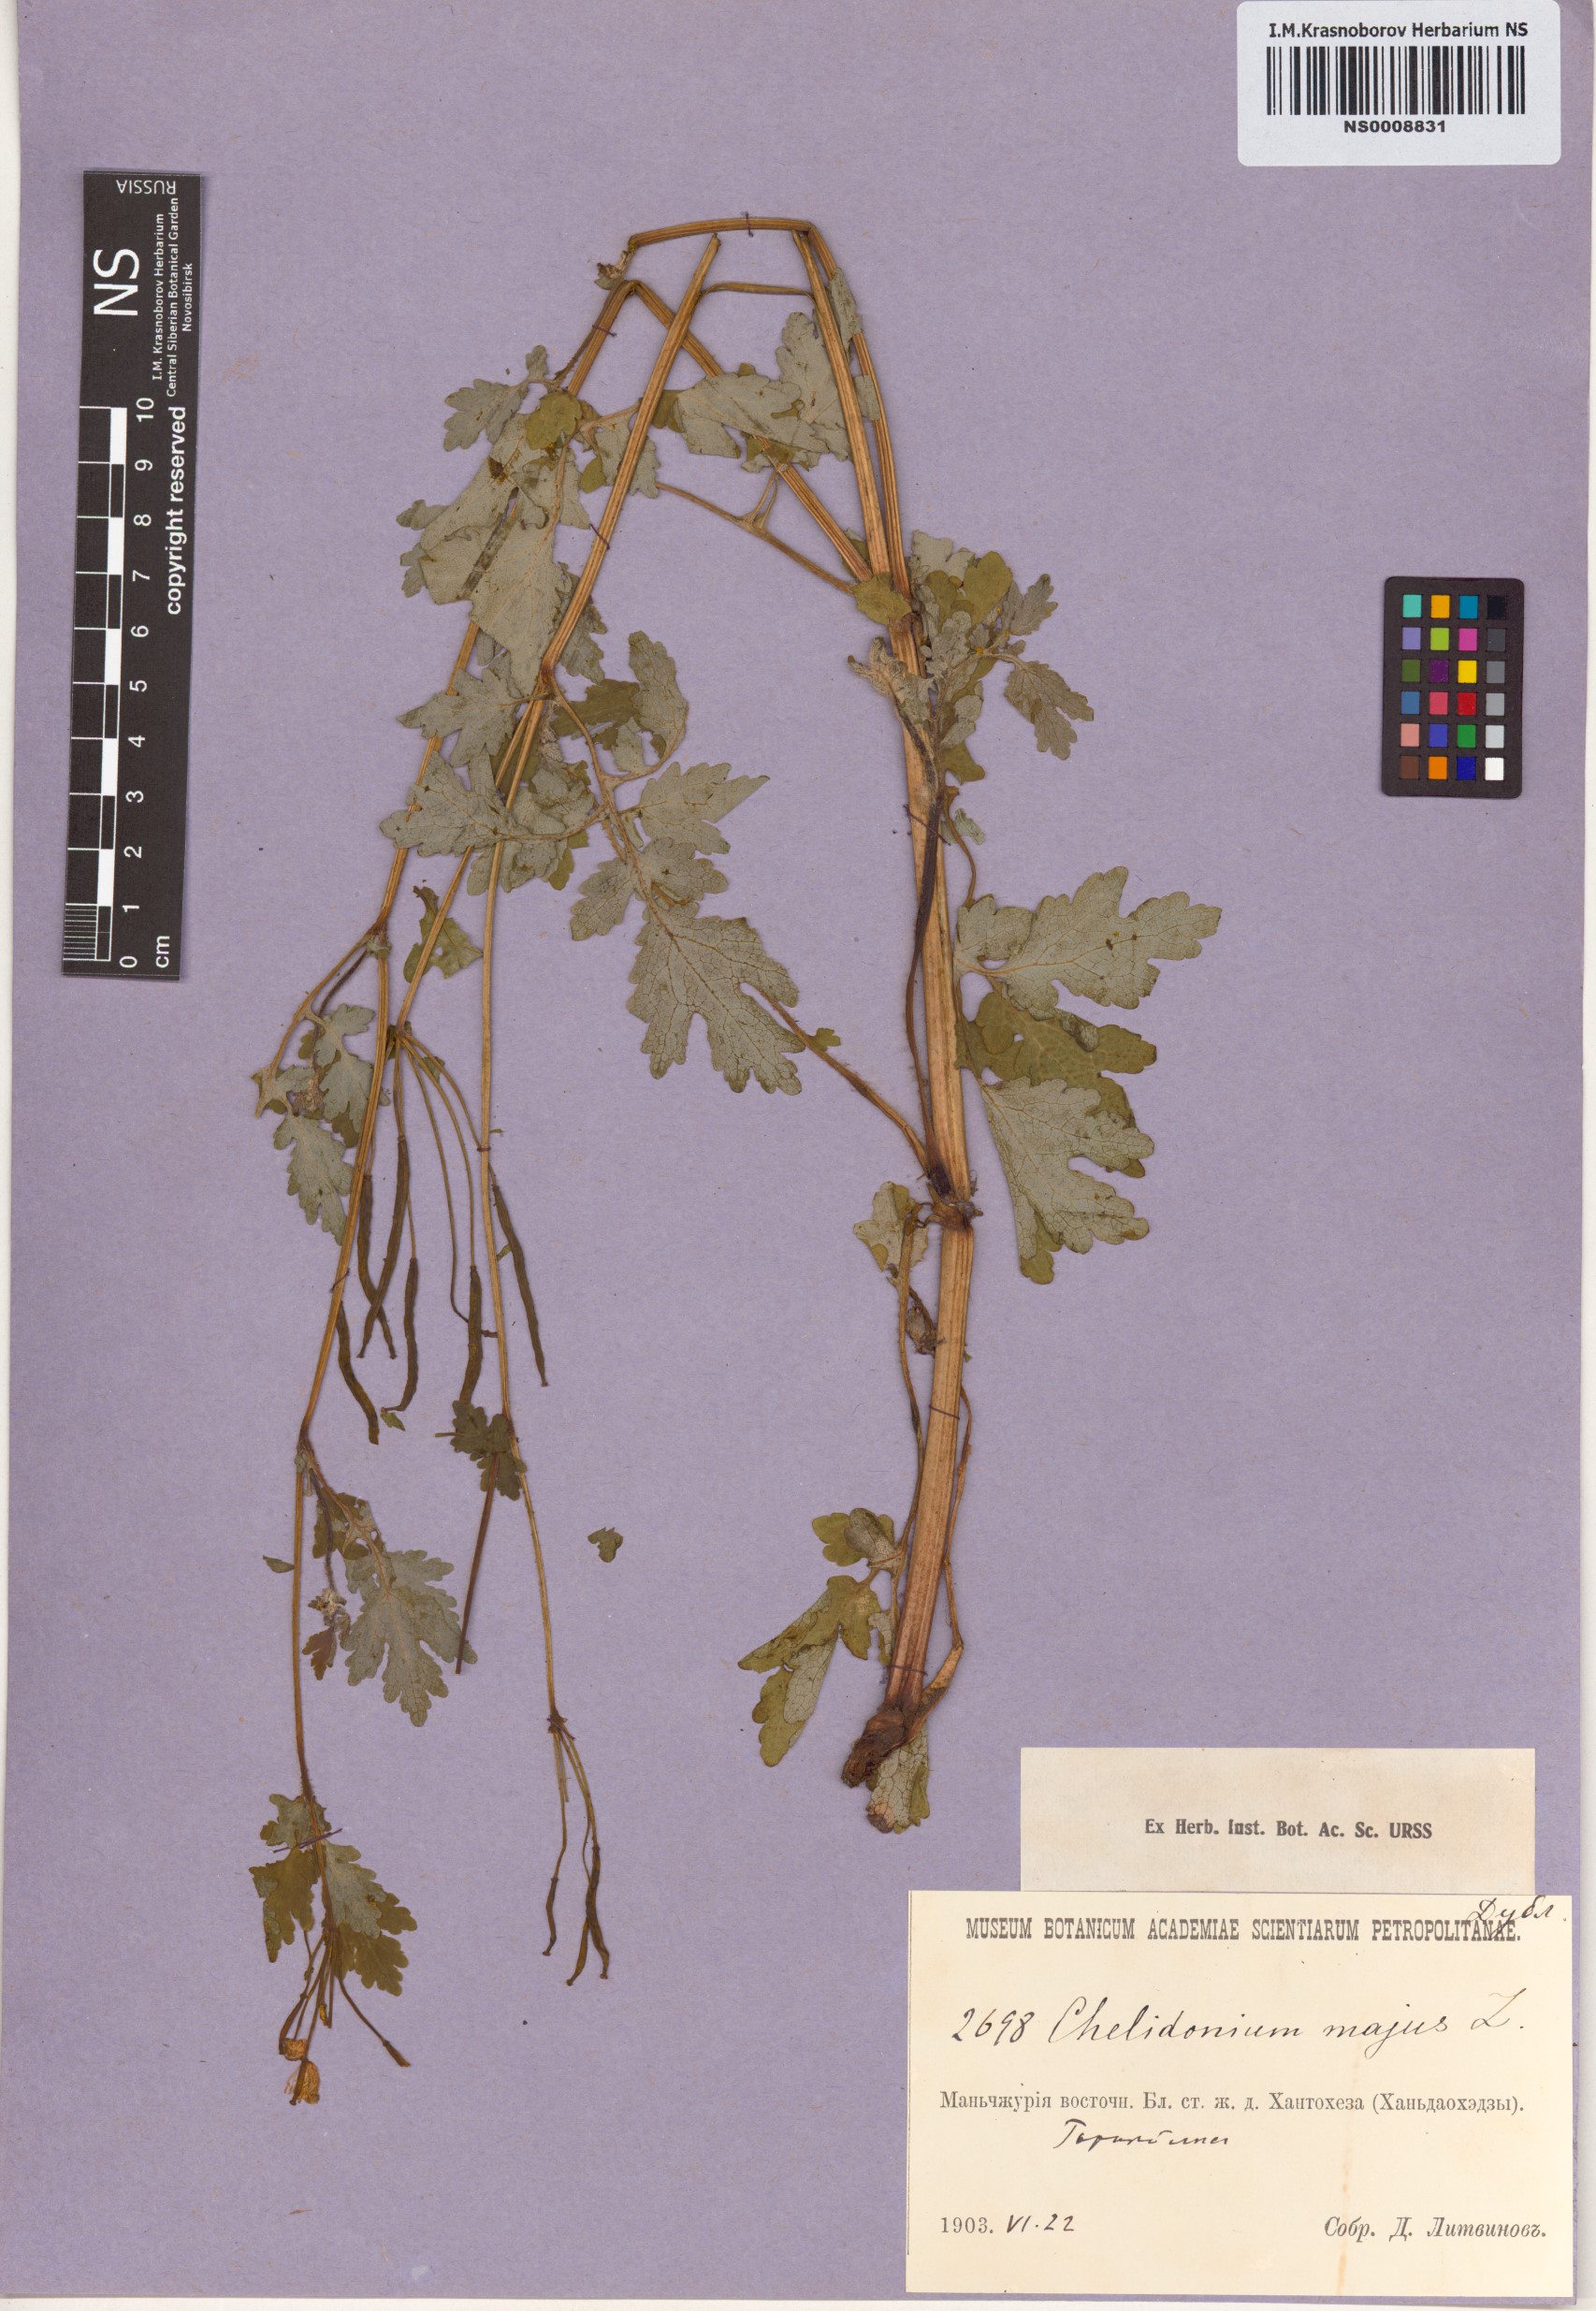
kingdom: Plantae
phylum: Tracheophyta
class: Magnoliopsida
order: Ranunculales
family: Papaveraceae
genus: Chelidonium
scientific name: Chelidonium majus
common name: Greater celandine
